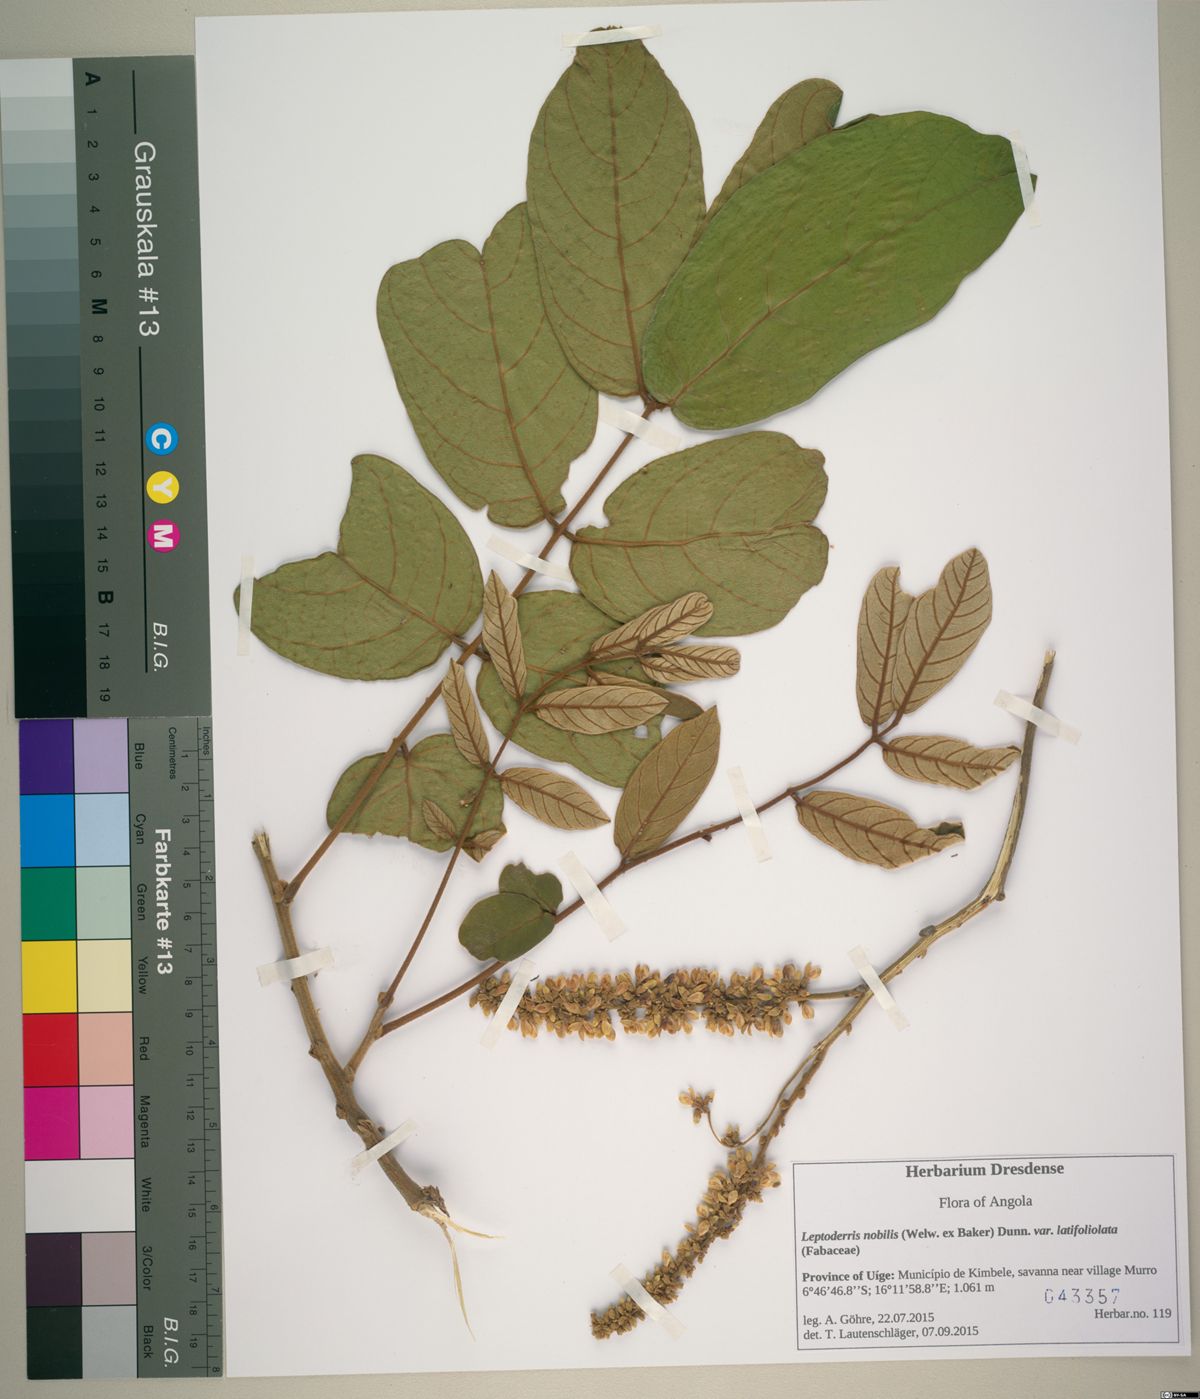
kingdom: Plantae
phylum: Tracheophyta
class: Magnoliopsida
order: Fabales
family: Fabaceae
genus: Leptoderris
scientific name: Leptoderris nobilis
